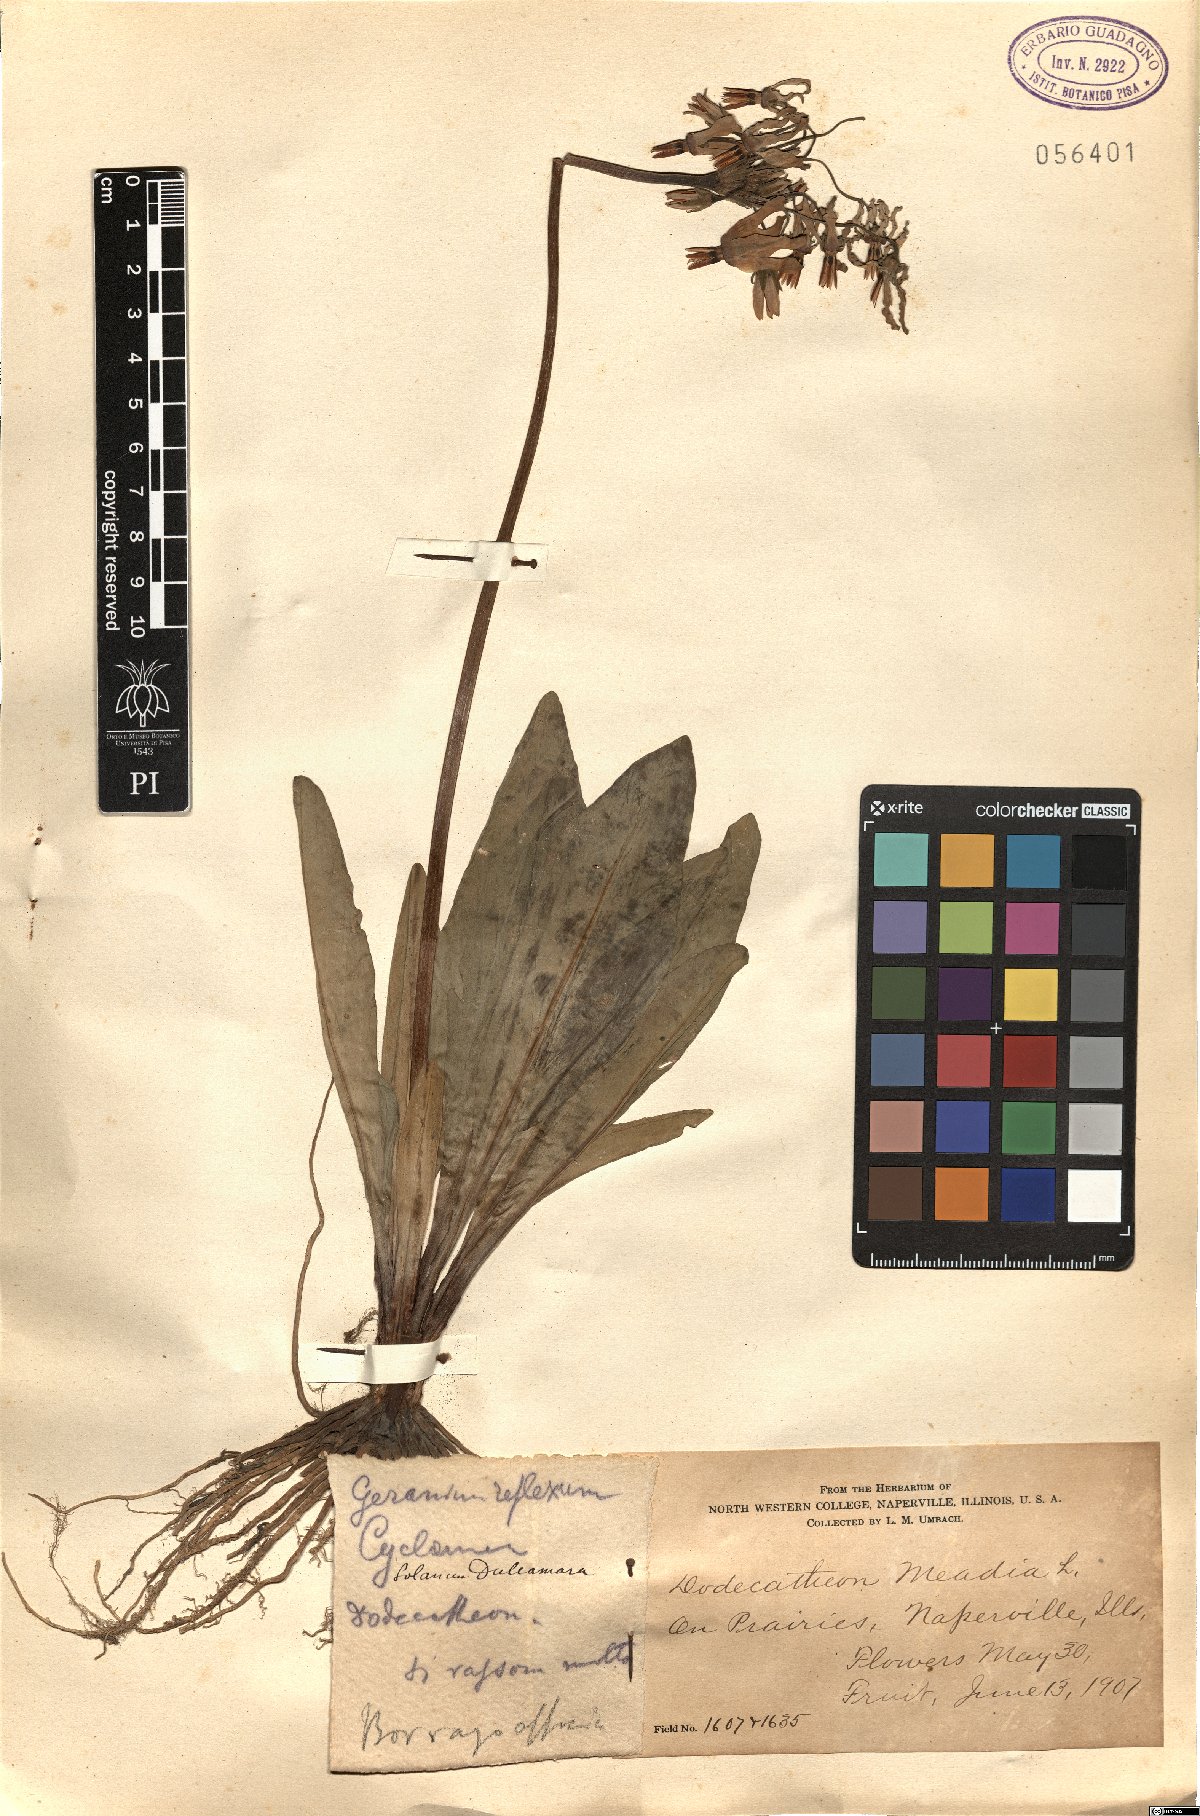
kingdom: Plantae
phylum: Tracheophyta
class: Magnoliopsida
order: Ericales
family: Primulaceae
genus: Dodecatheon
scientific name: Dodecatheon meadia
